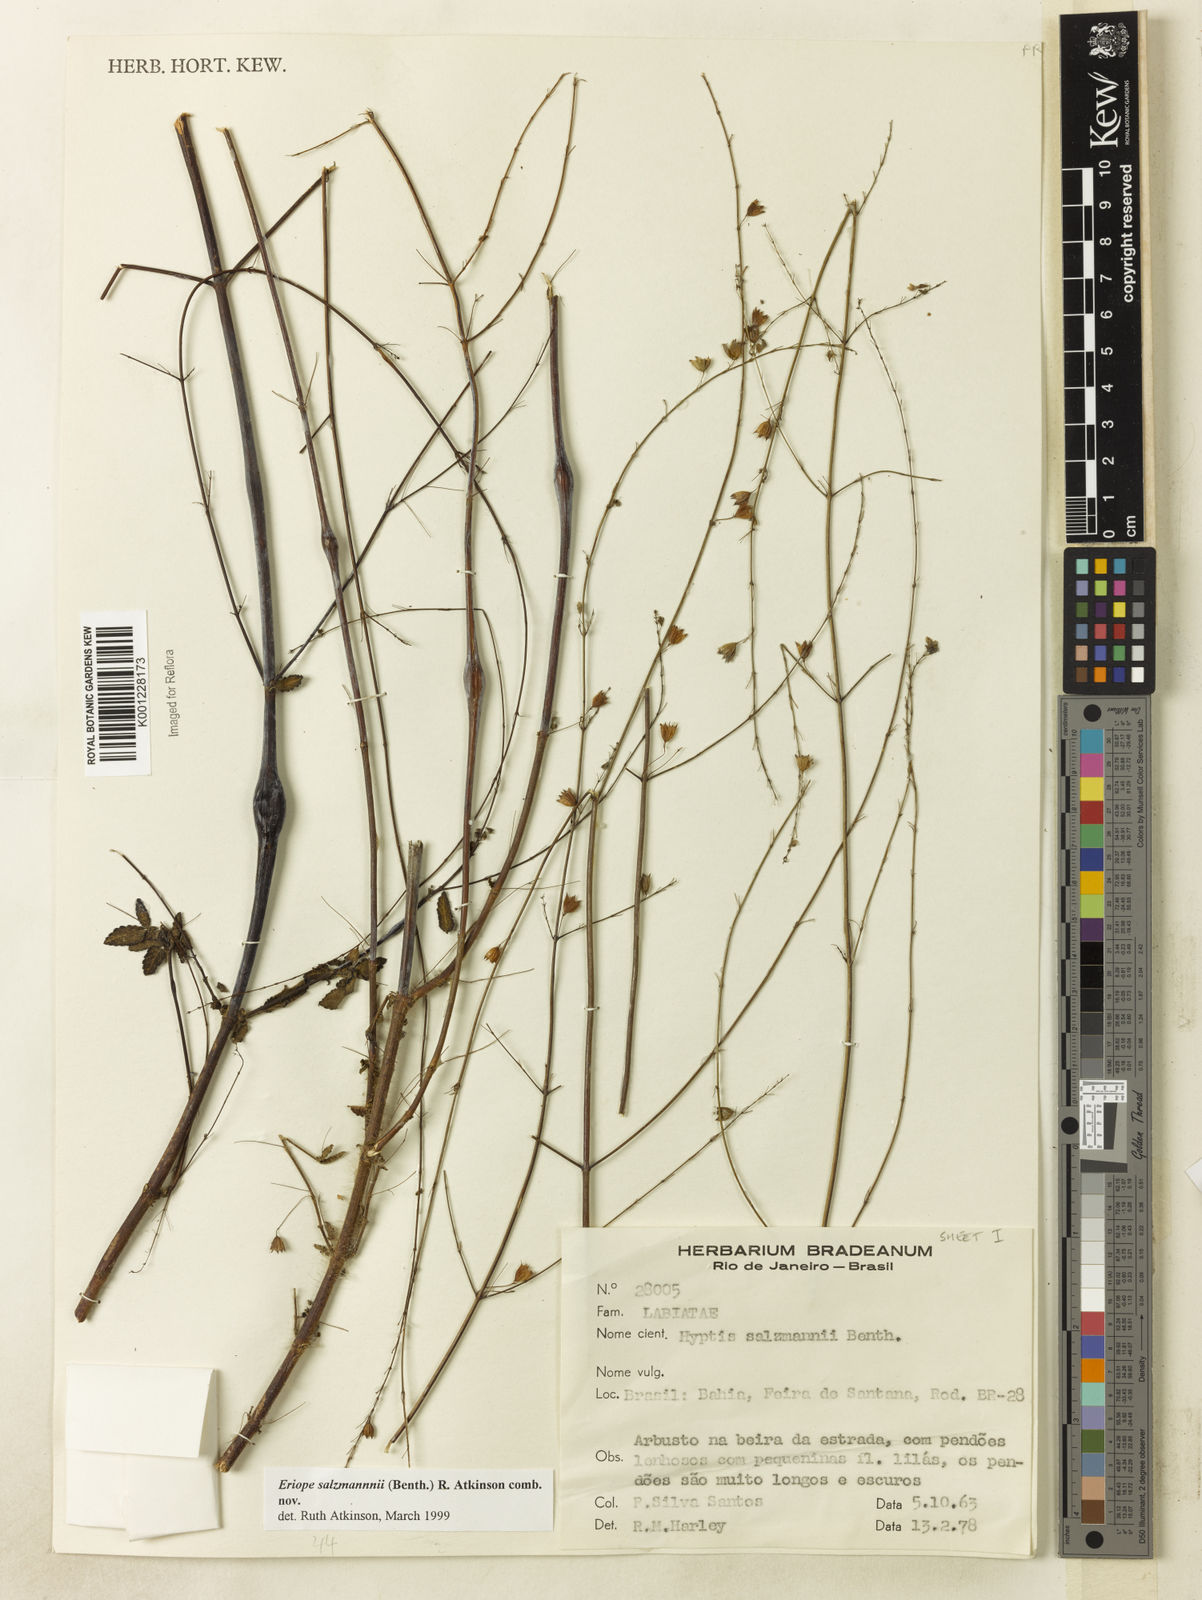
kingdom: Plantae
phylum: Tracheophyta
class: Magnoliopsida
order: Lamiales
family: Lamiaceae
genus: Hypenia
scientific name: Hypenia salzmannii
